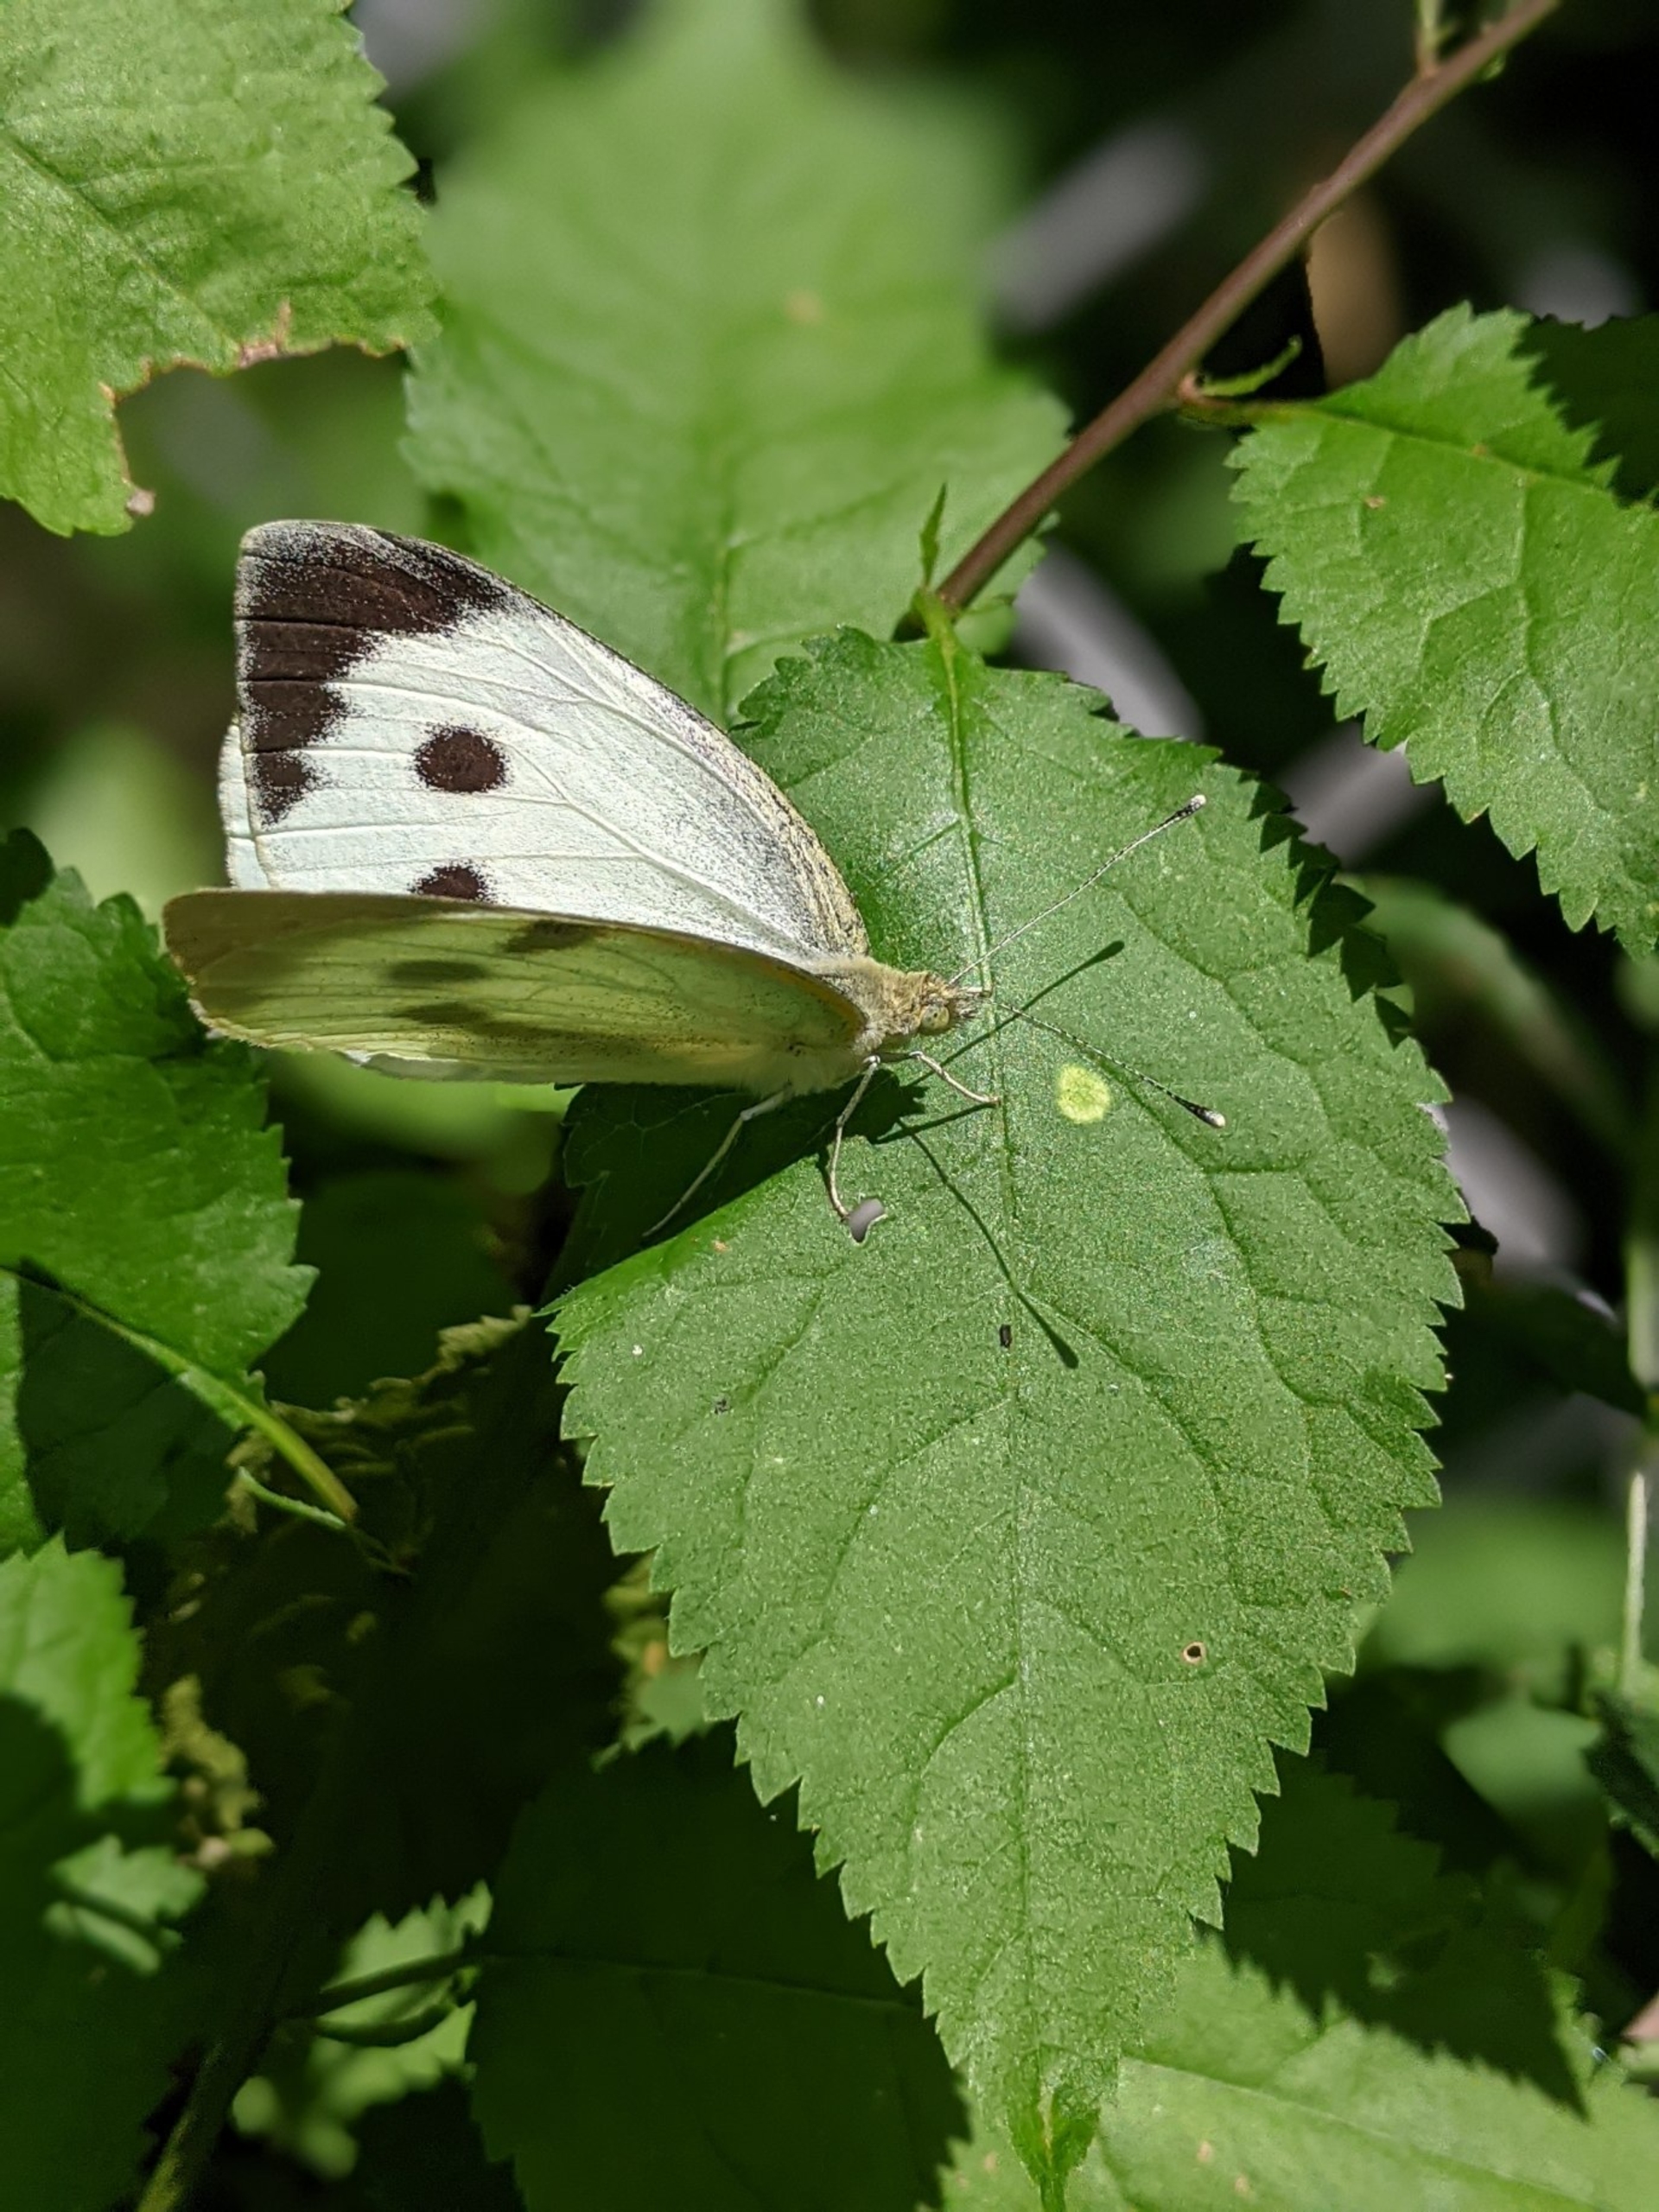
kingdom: Animalia
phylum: Arthropoda
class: Insecta
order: Lepidoptera
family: Pieridae
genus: Pieris
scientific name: Pieris brassicae
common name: Stor kålsommerfugl
